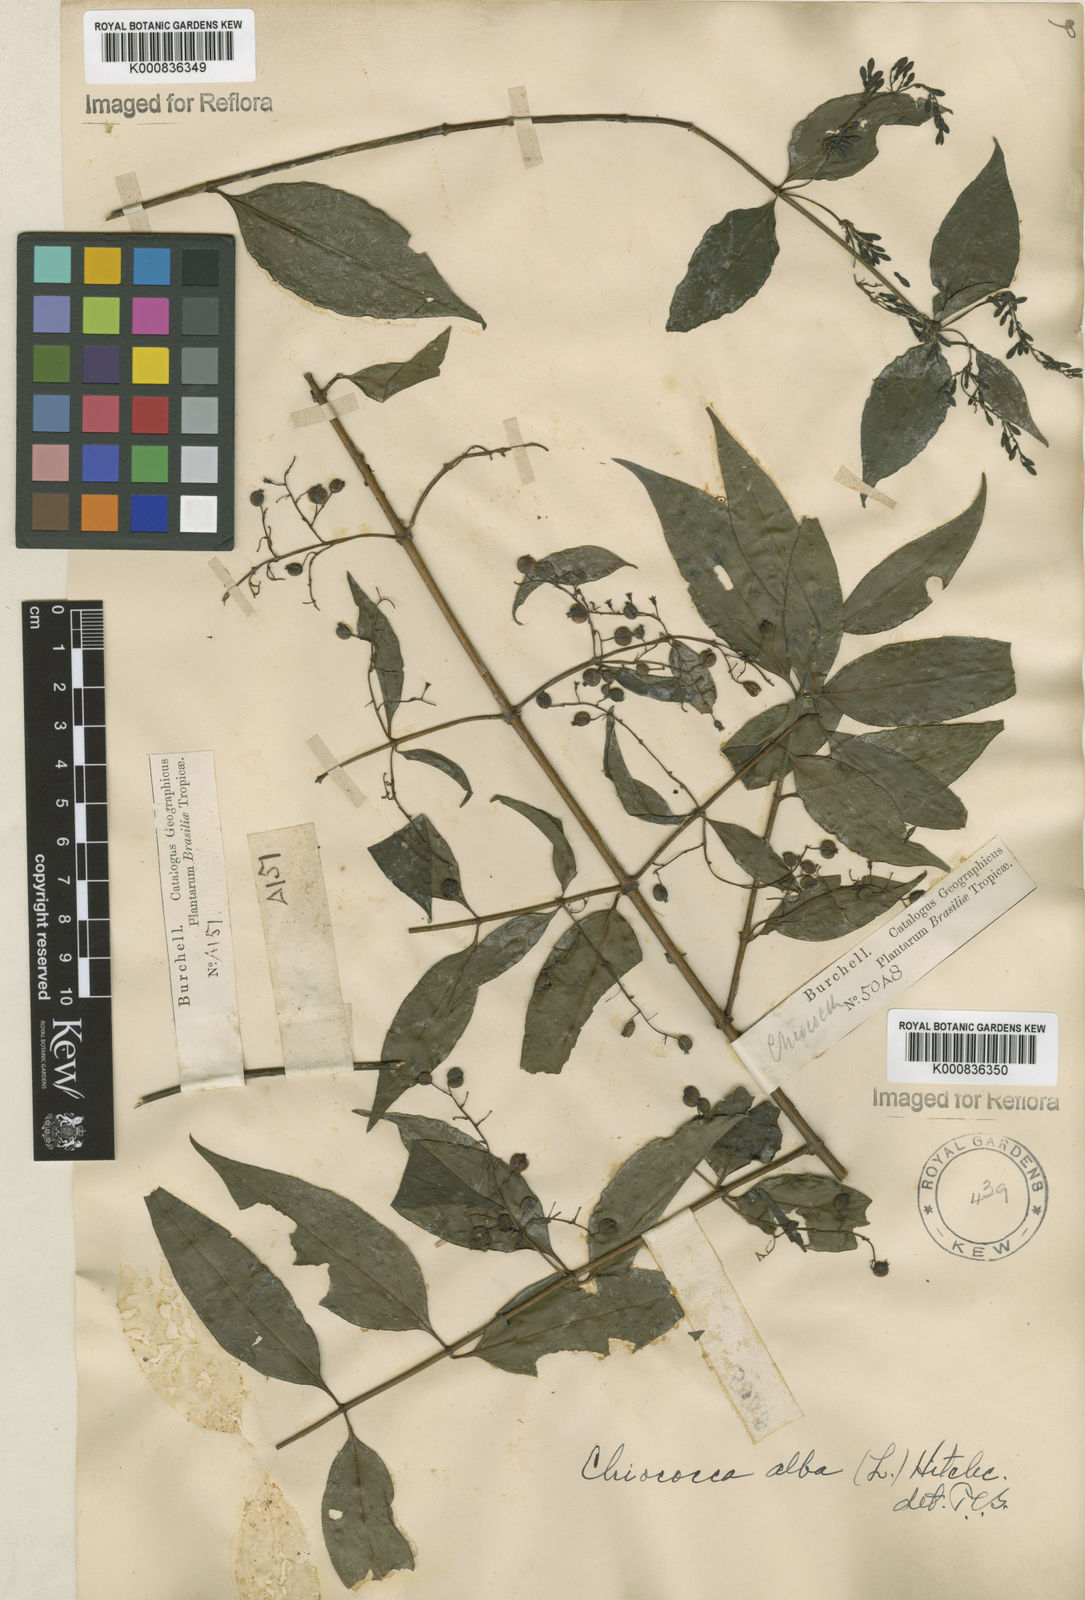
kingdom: Plantae
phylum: Tracheophyta
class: Magnoliopsida
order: Gentianales
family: Rubiaceae
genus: Chiococca
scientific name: Chiococca alba
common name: Snowberry
